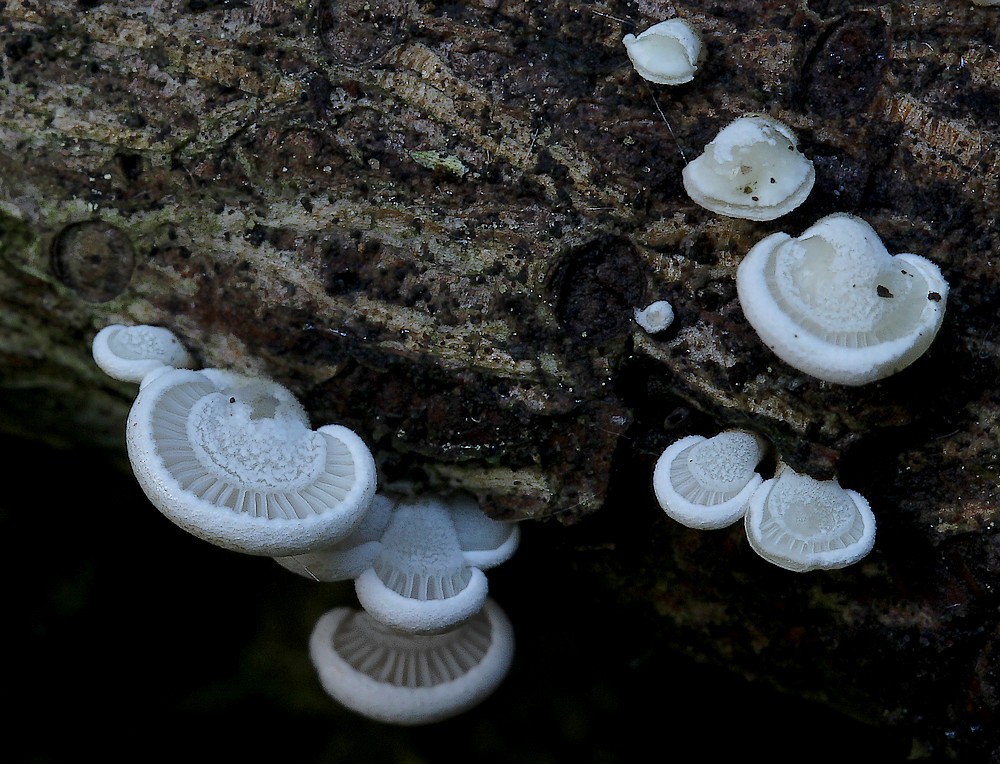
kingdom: Fungi
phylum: Basidiomycota
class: Agaricomycetes
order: Agaricales
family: Mycenaceae
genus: Panellus
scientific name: Panellus mitis
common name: mild epaulethat
